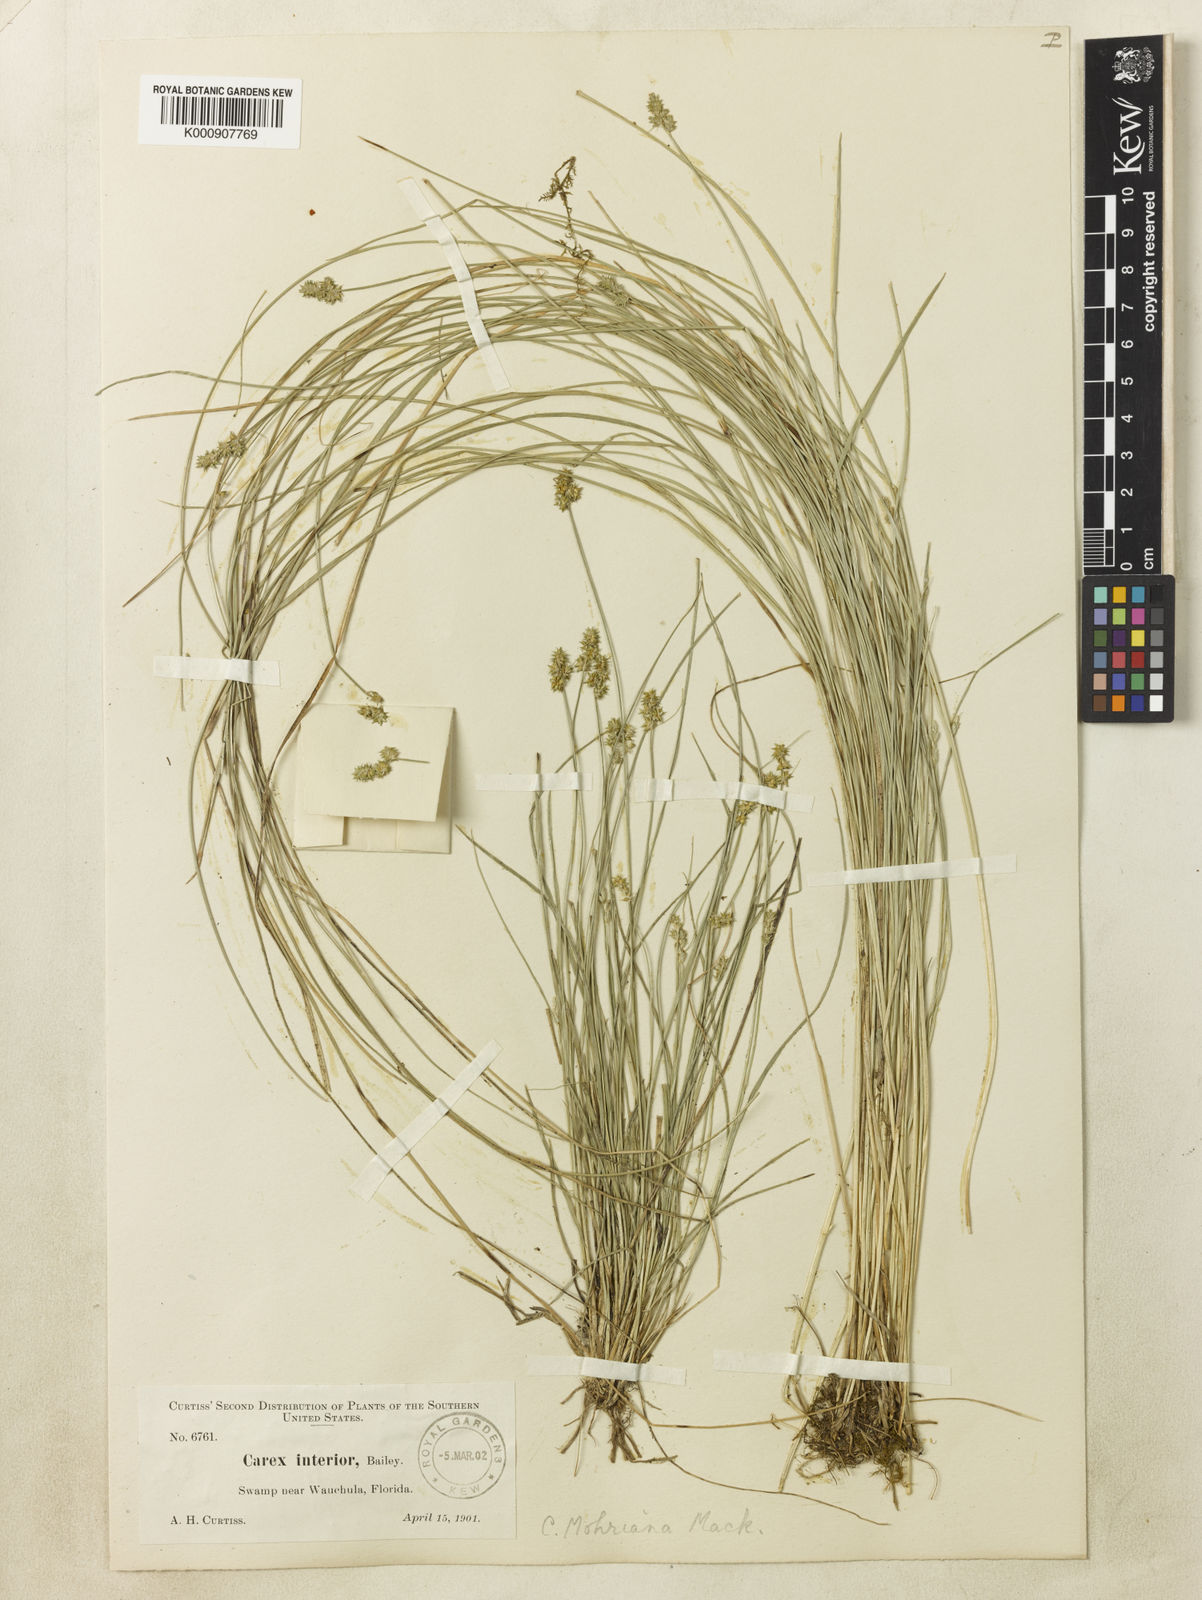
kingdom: Plantae
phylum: Tracheophyta
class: Liliopsida
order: Poales
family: Cyperaceae
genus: Carex
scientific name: Carex atlantica
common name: Atlantic sedge
